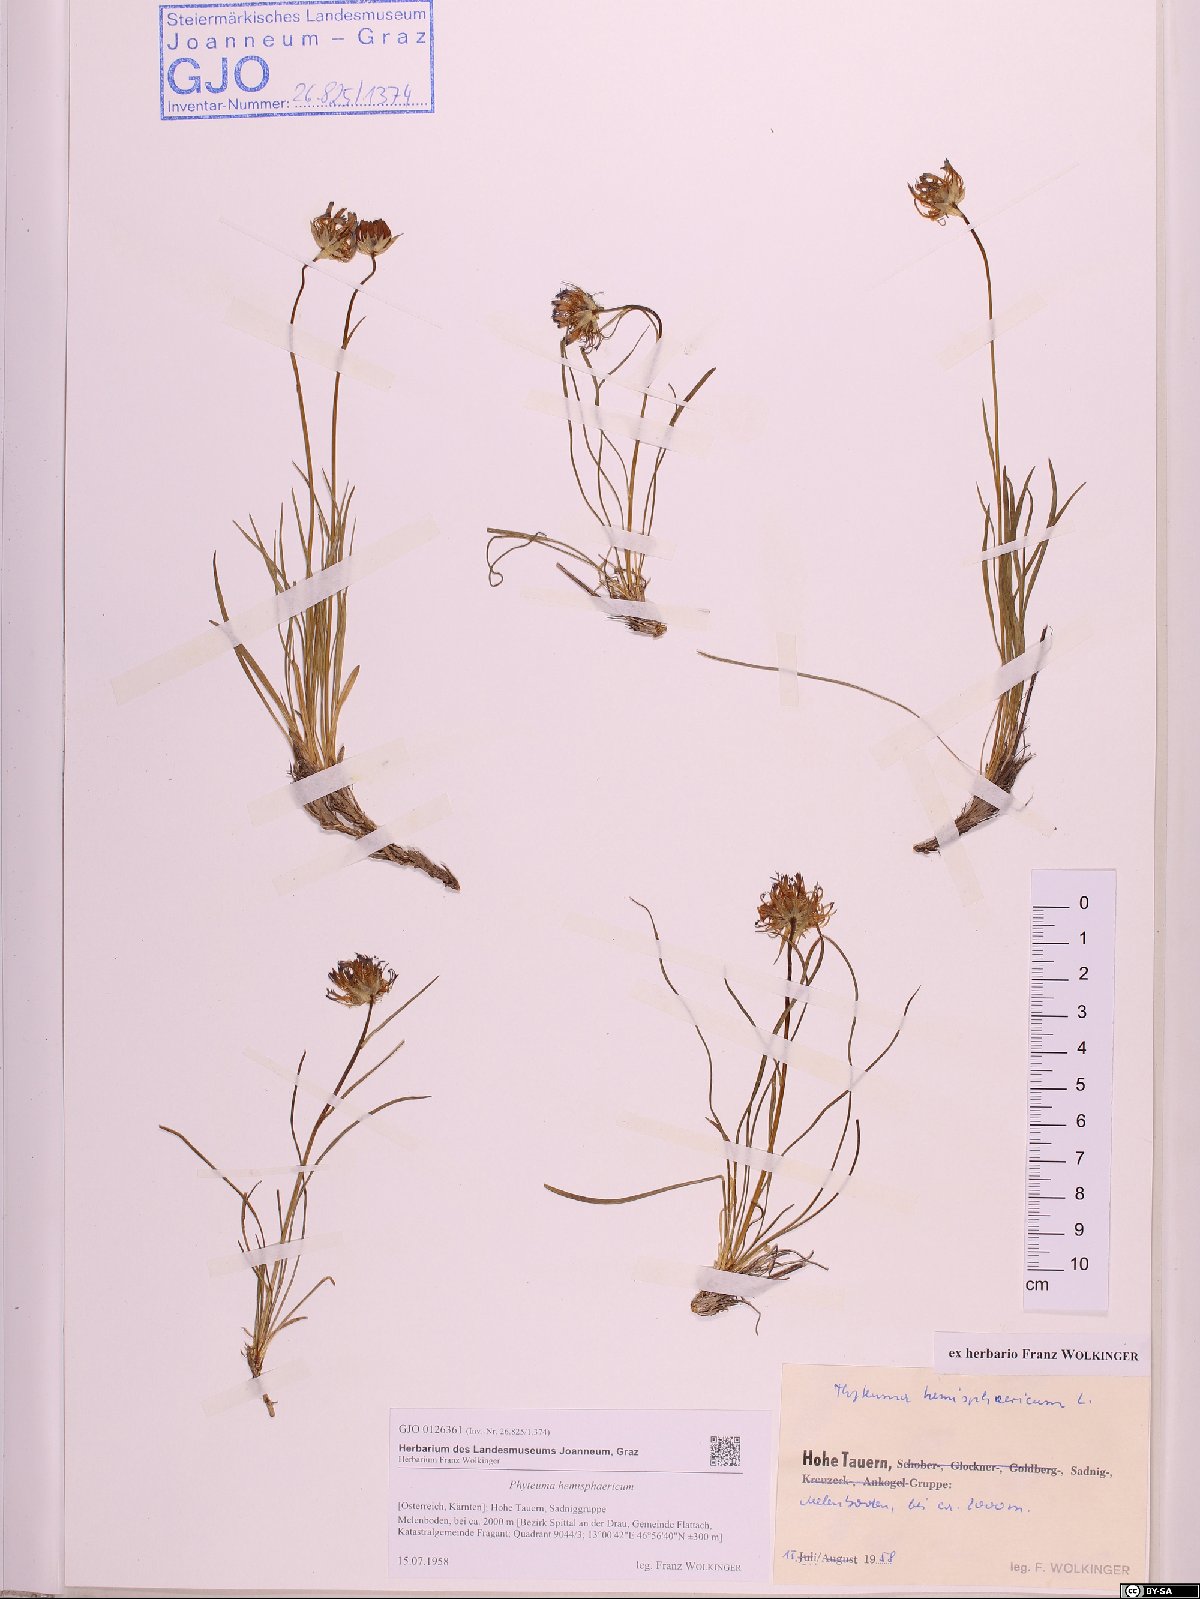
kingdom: Plantae
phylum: Tracheophyta
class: Magnoliopsida
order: Asterales
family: Campanulaceae
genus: Phyteuma
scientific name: Phyteuma hemisphaericum
